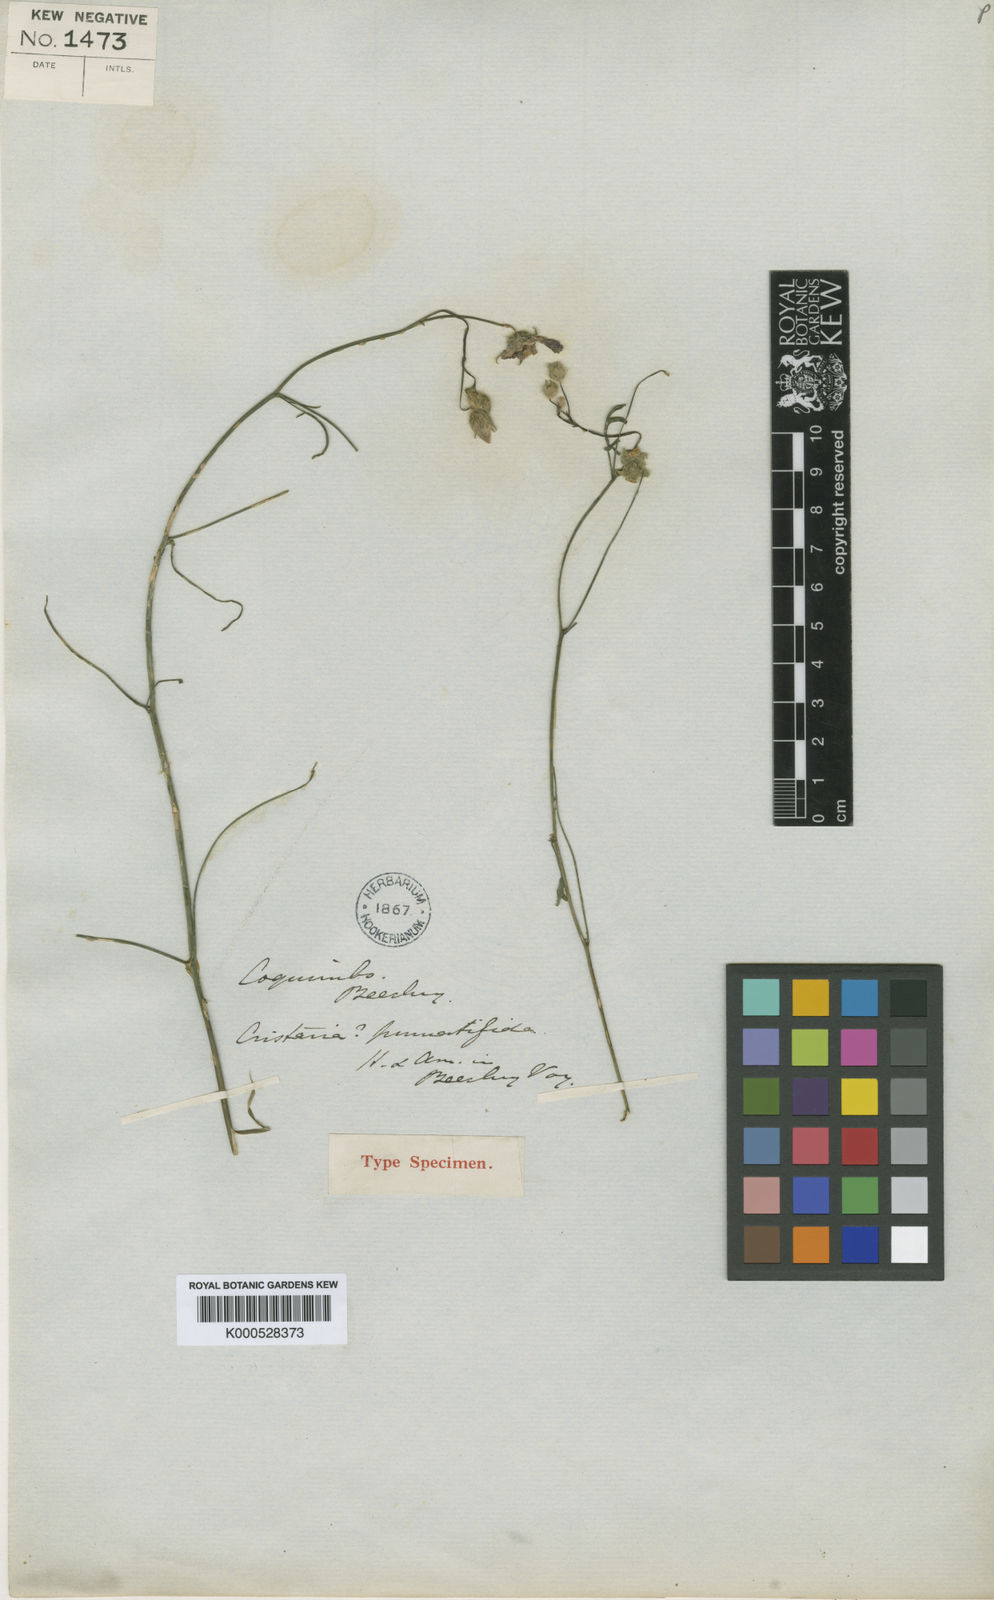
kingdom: Plantae
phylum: Tracheophyta
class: Magnoliopsida
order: Malvales
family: Malvaceae
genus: Cristaria
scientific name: Cristaria aspera
